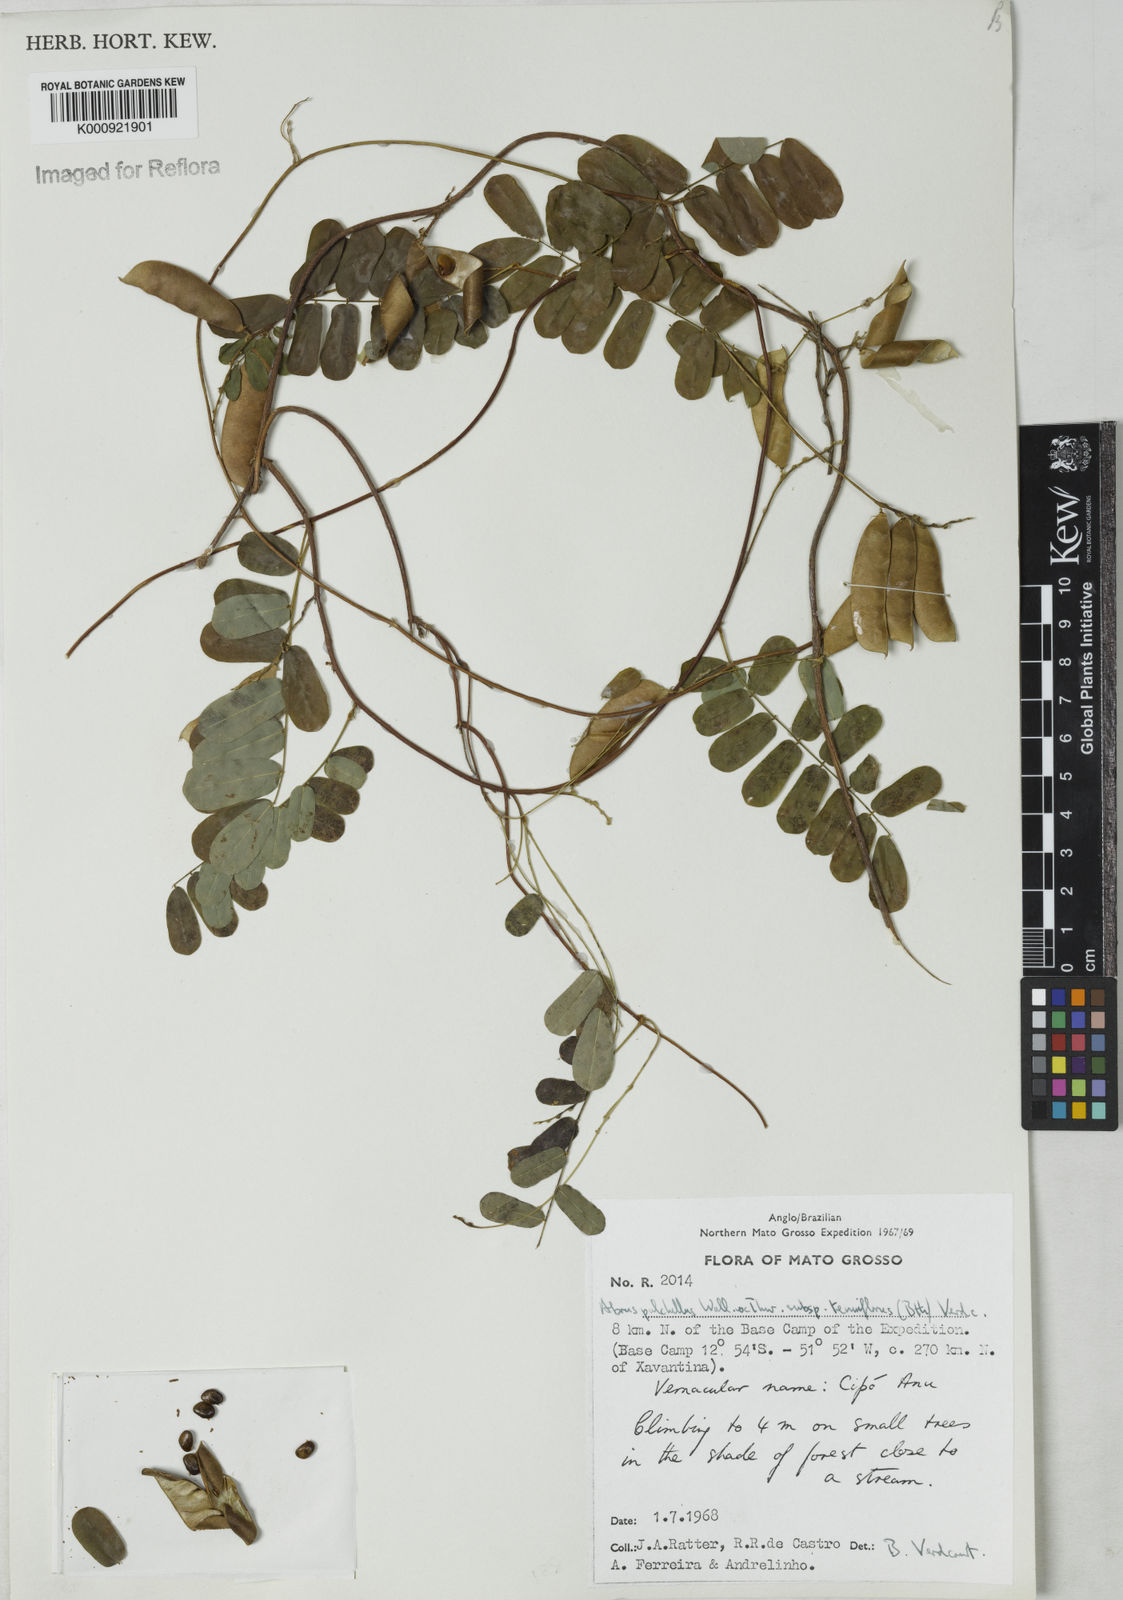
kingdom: Plantae
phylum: Tracheophyta
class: Magnoliopsida
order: Fabales
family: Fabaceae
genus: Abrus
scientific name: Abrus melanospermus
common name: Licorice-root
